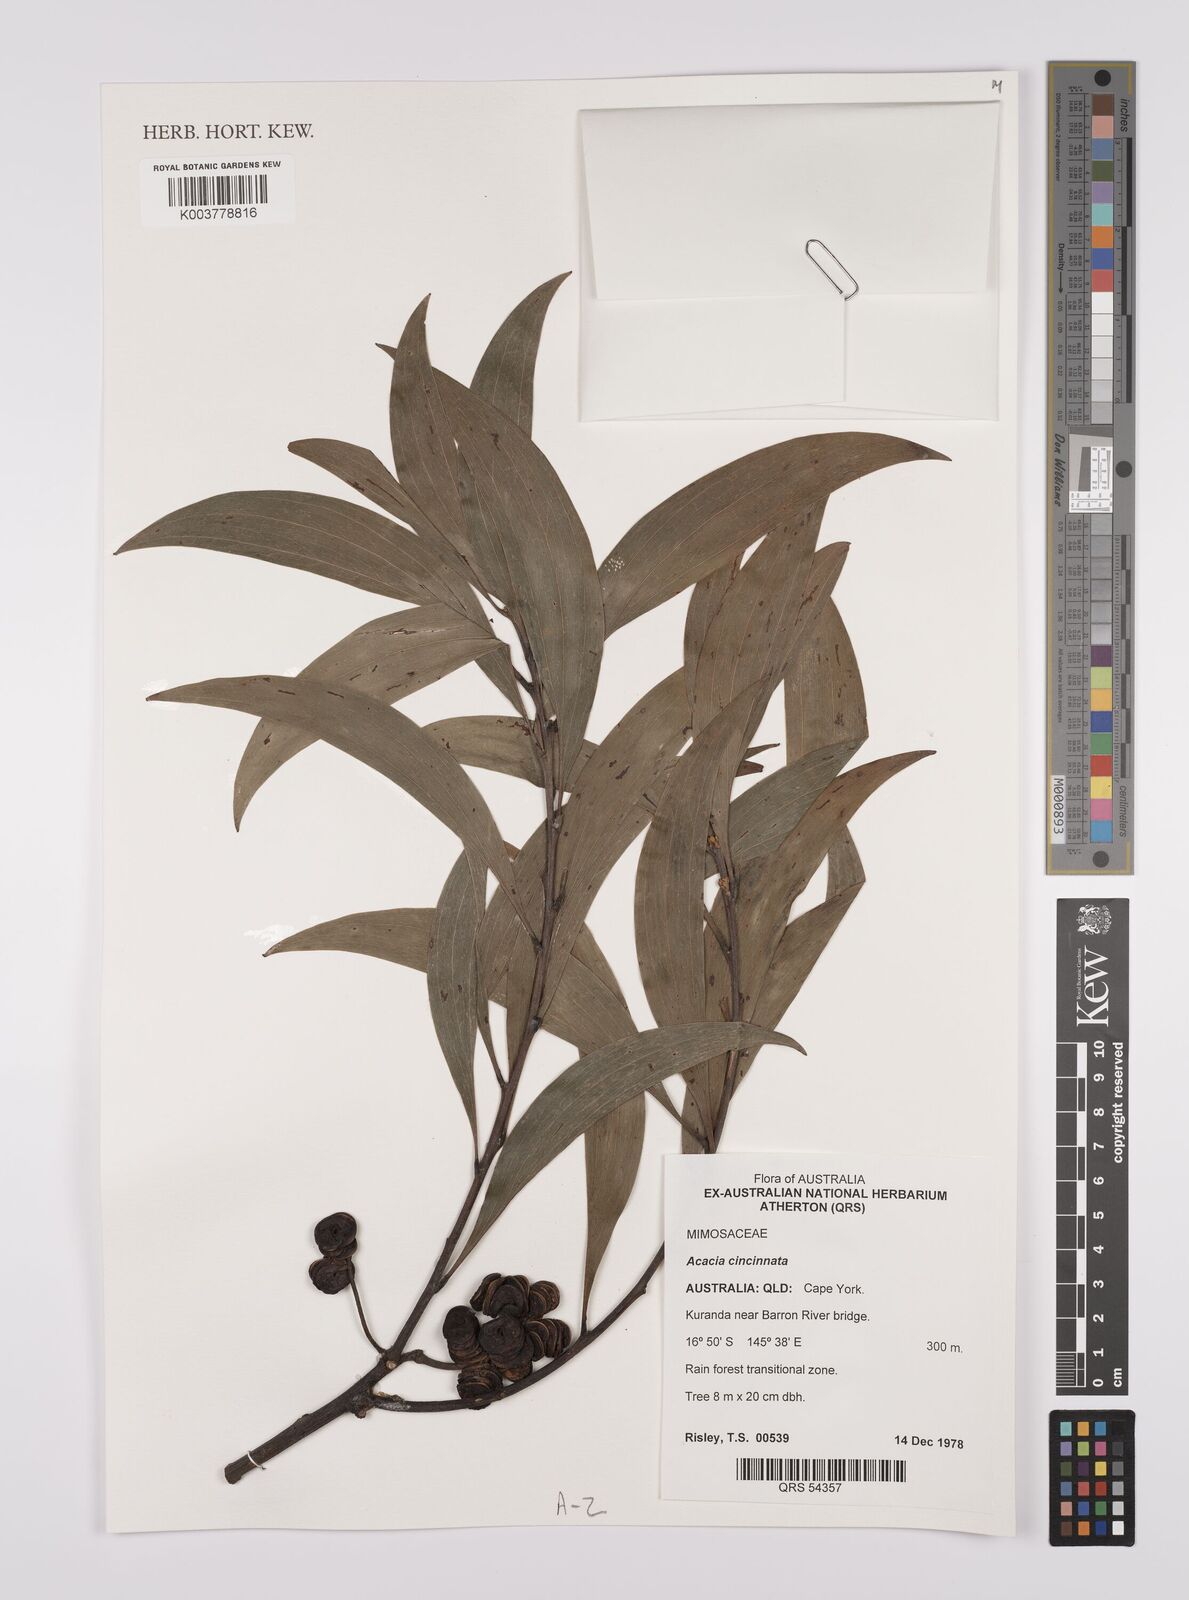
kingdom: Plantae
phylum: Tracheophyta
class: Magnoliopsida
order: Fabales
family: Fabaceae
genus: Acacia
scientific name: Acacia cincinnata
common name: Daintree wattle
